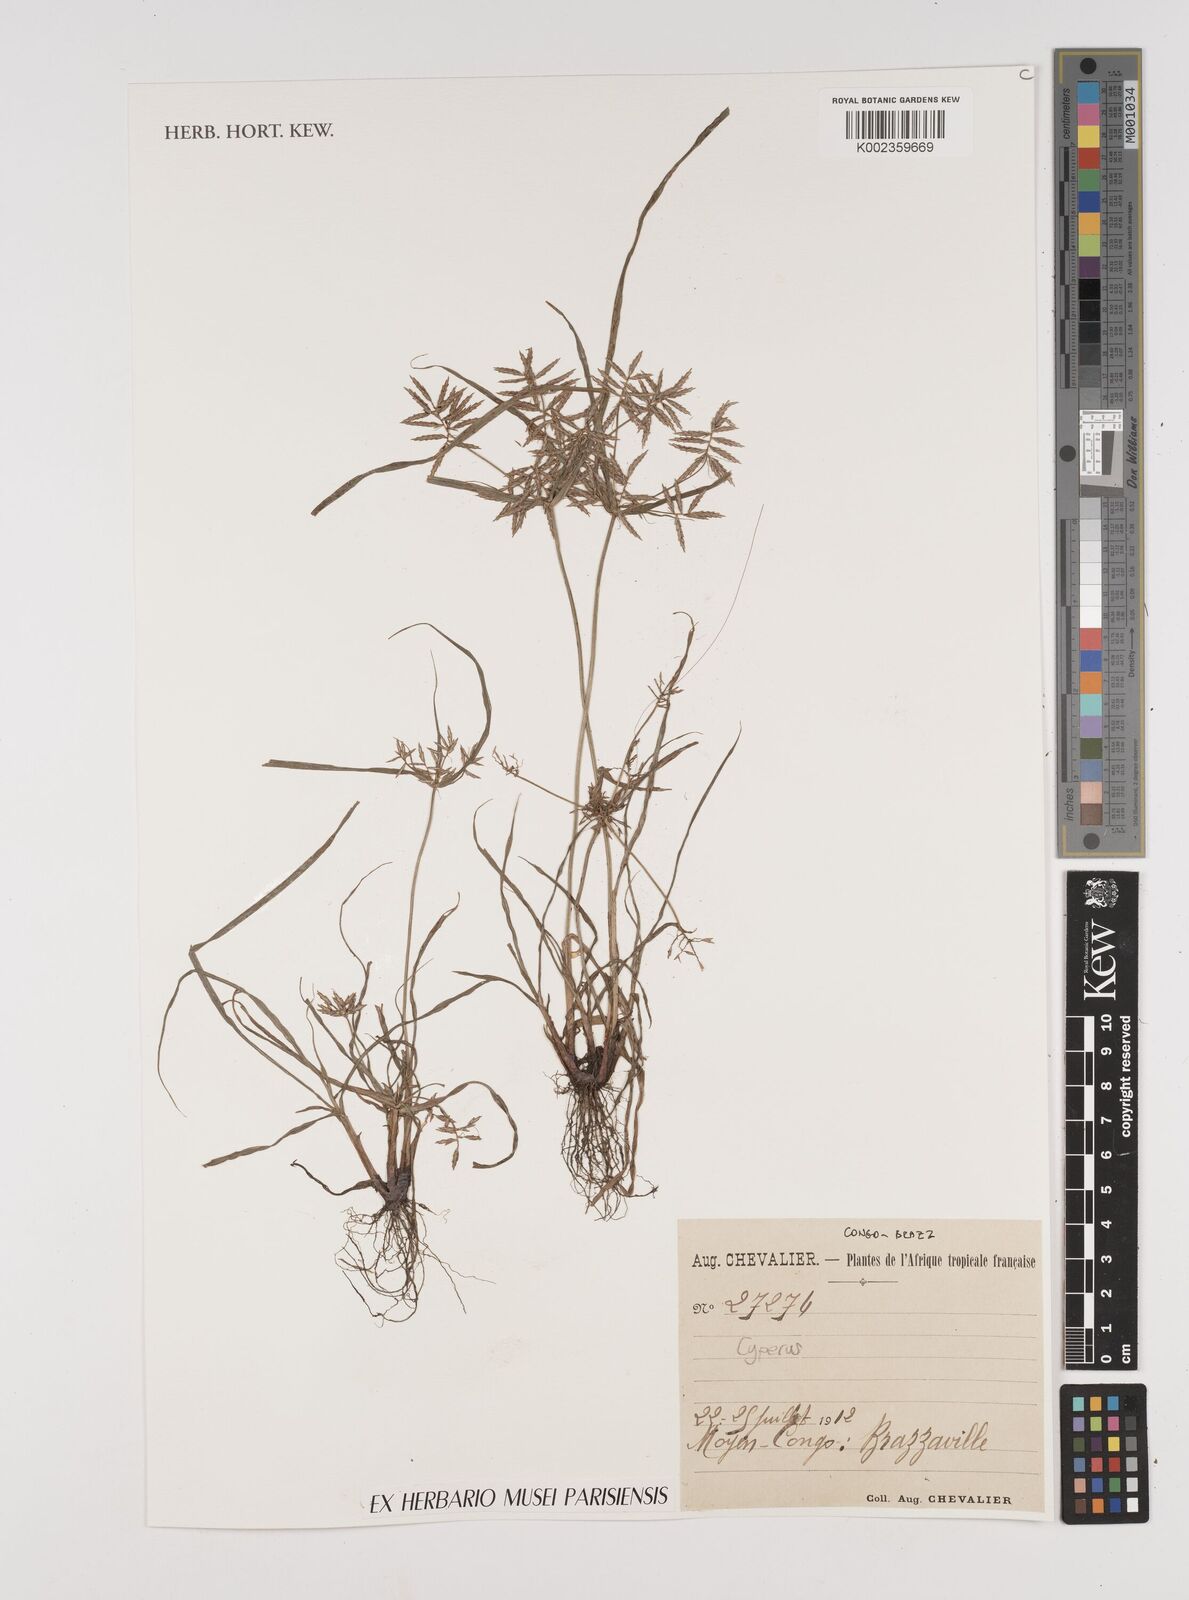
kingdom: Plantae
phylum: Tracheophyta
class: Liliopsida
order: Poales
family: Cyperaceae
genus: Cyperus
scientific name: Cyperus
